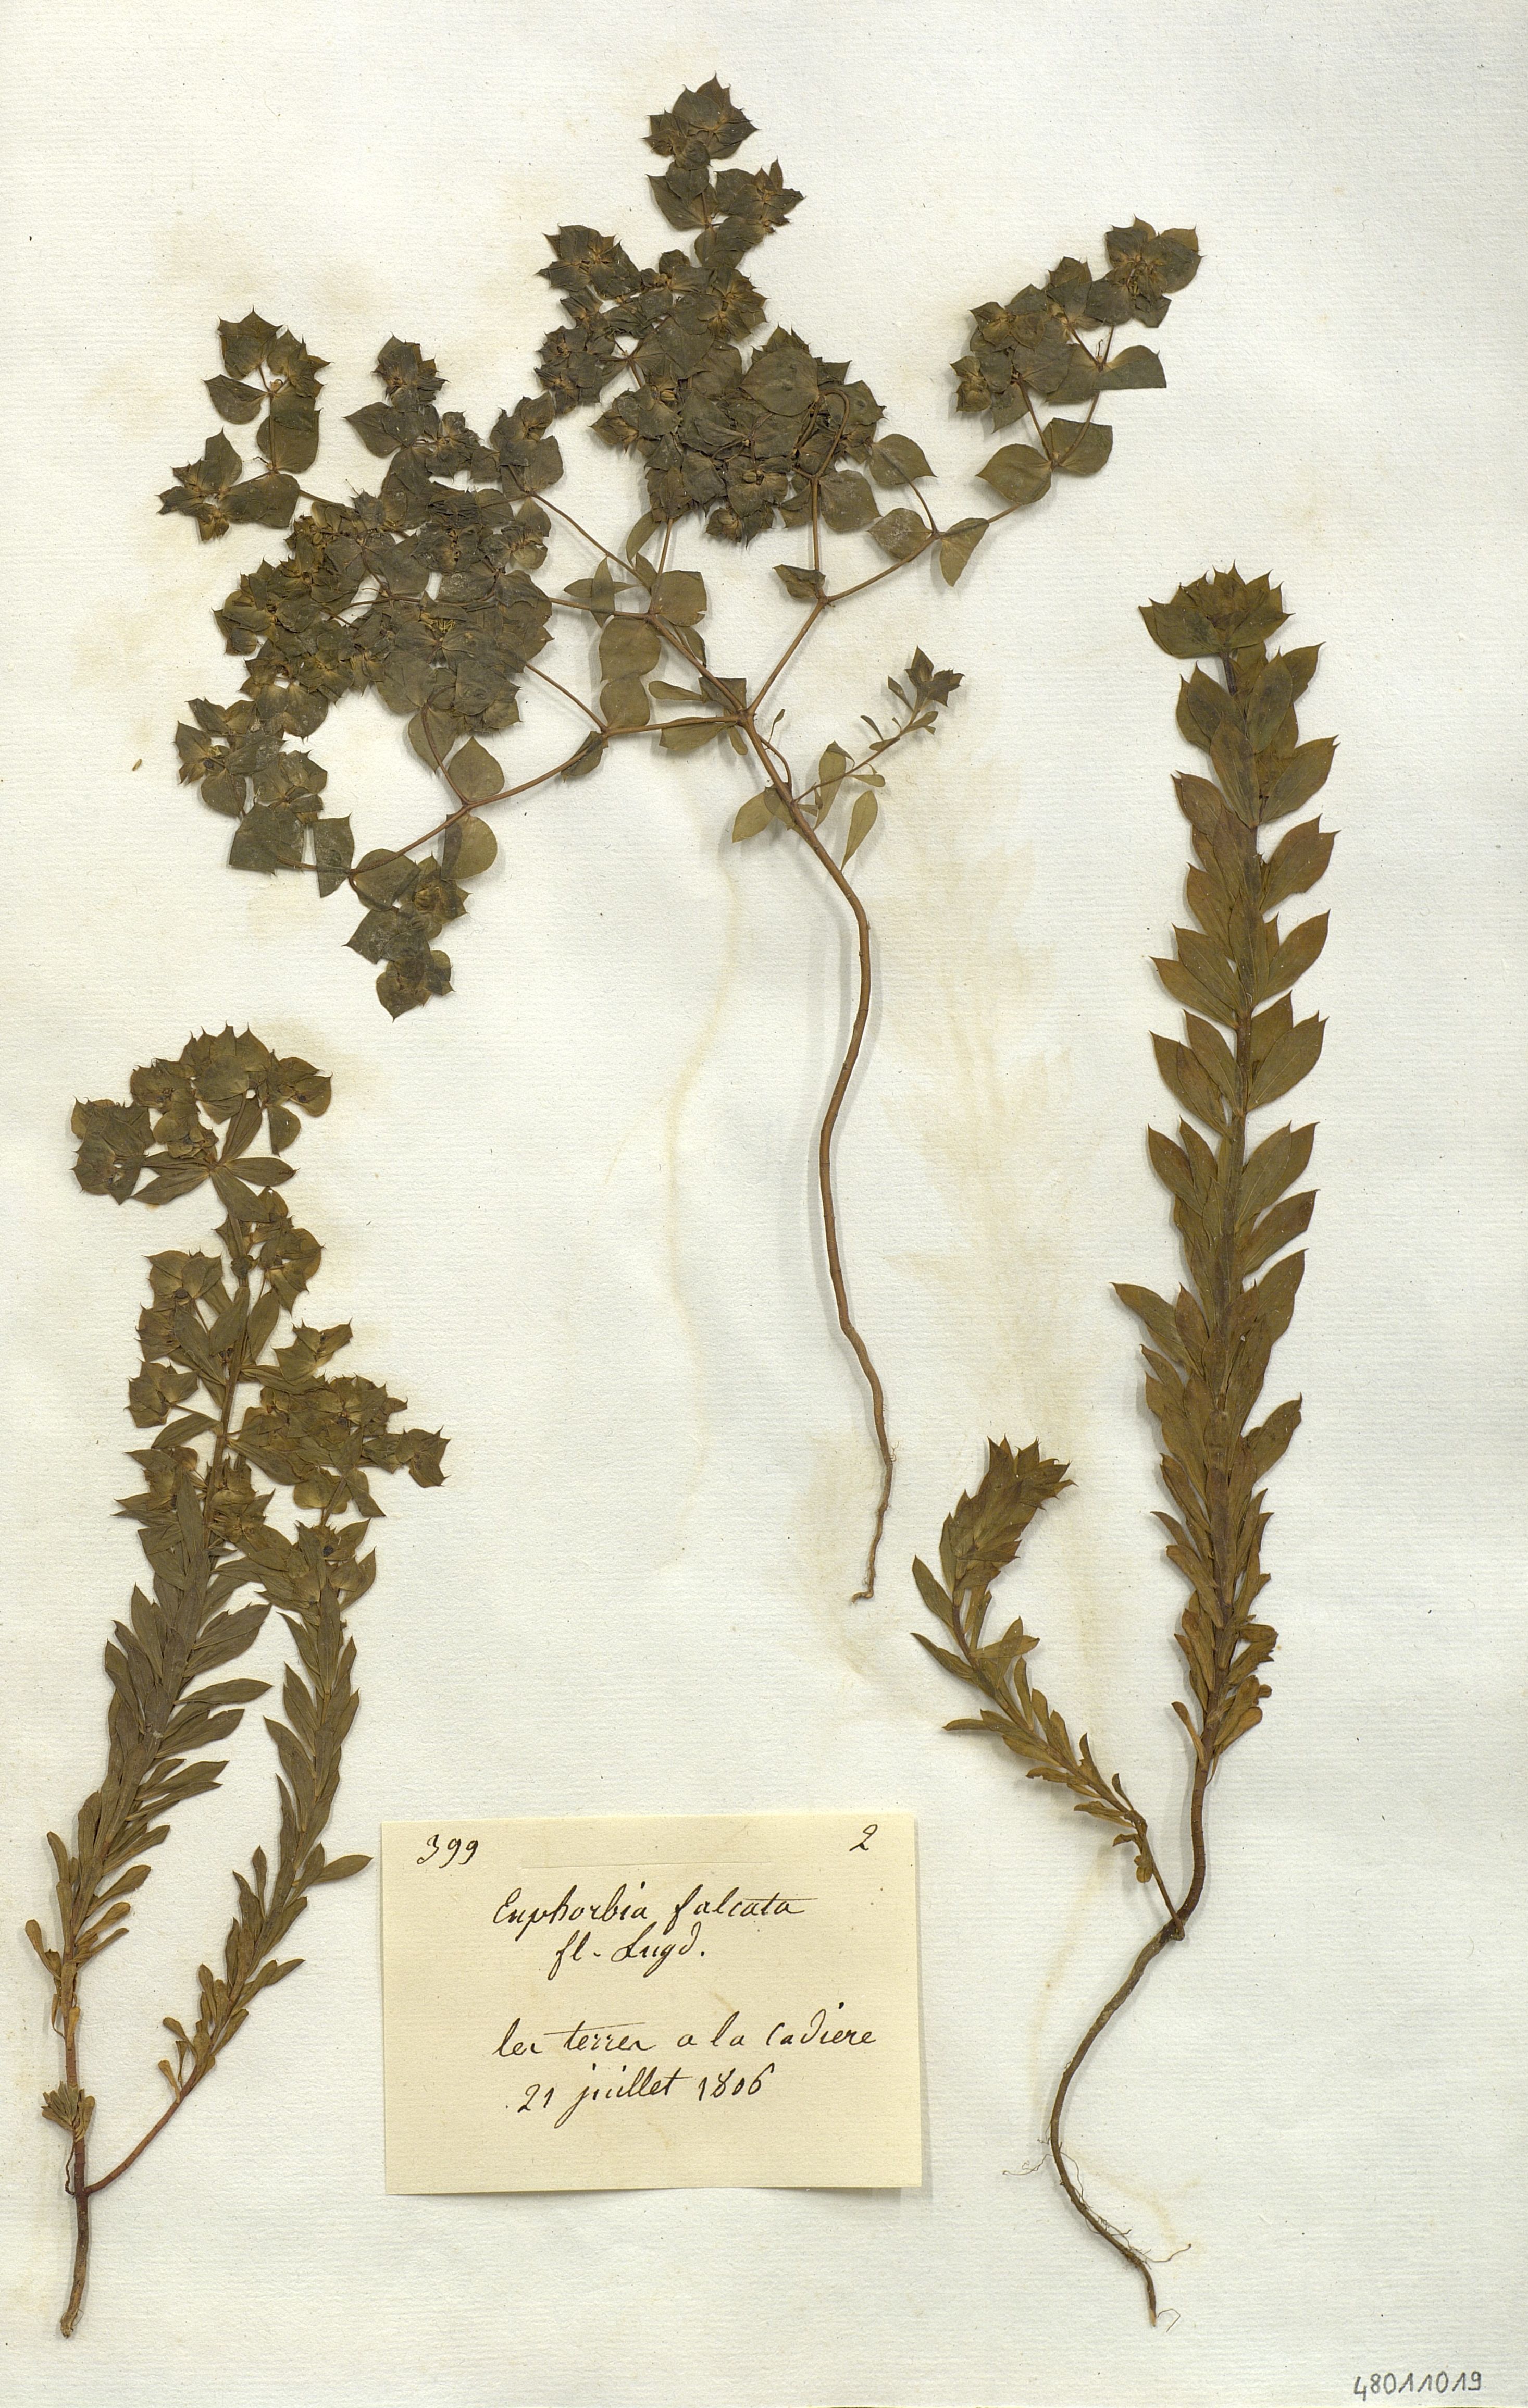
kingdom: Plantae
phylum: Tracheophyta
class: Magnoliopsida
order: Malpighiales
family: Euphorbiaceae
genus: Euphorbia
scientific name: Euphorbia falcata
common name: Sickle spurge
